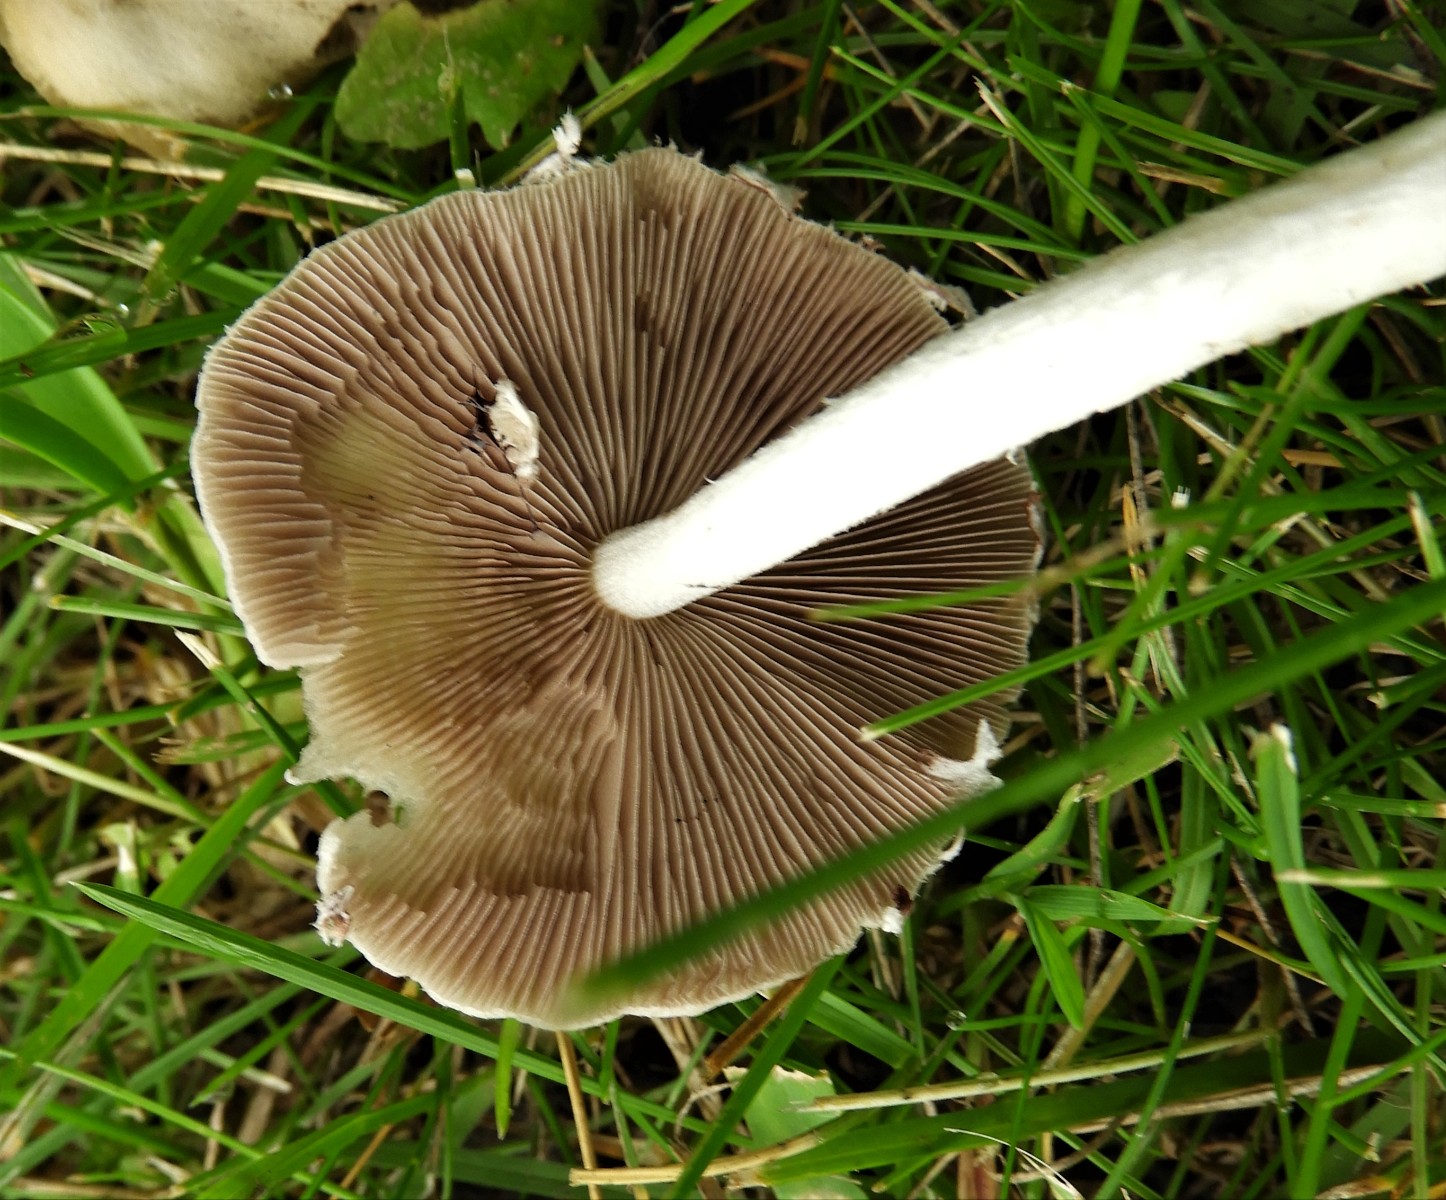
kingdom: Fungi
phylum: Basidiomycota
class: Agaricomycetes
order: Agaricales
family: Psathyrellaceae
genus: Candolleomyces
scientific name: Candolleomyces candolleanus
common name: Candolles mørkhat
